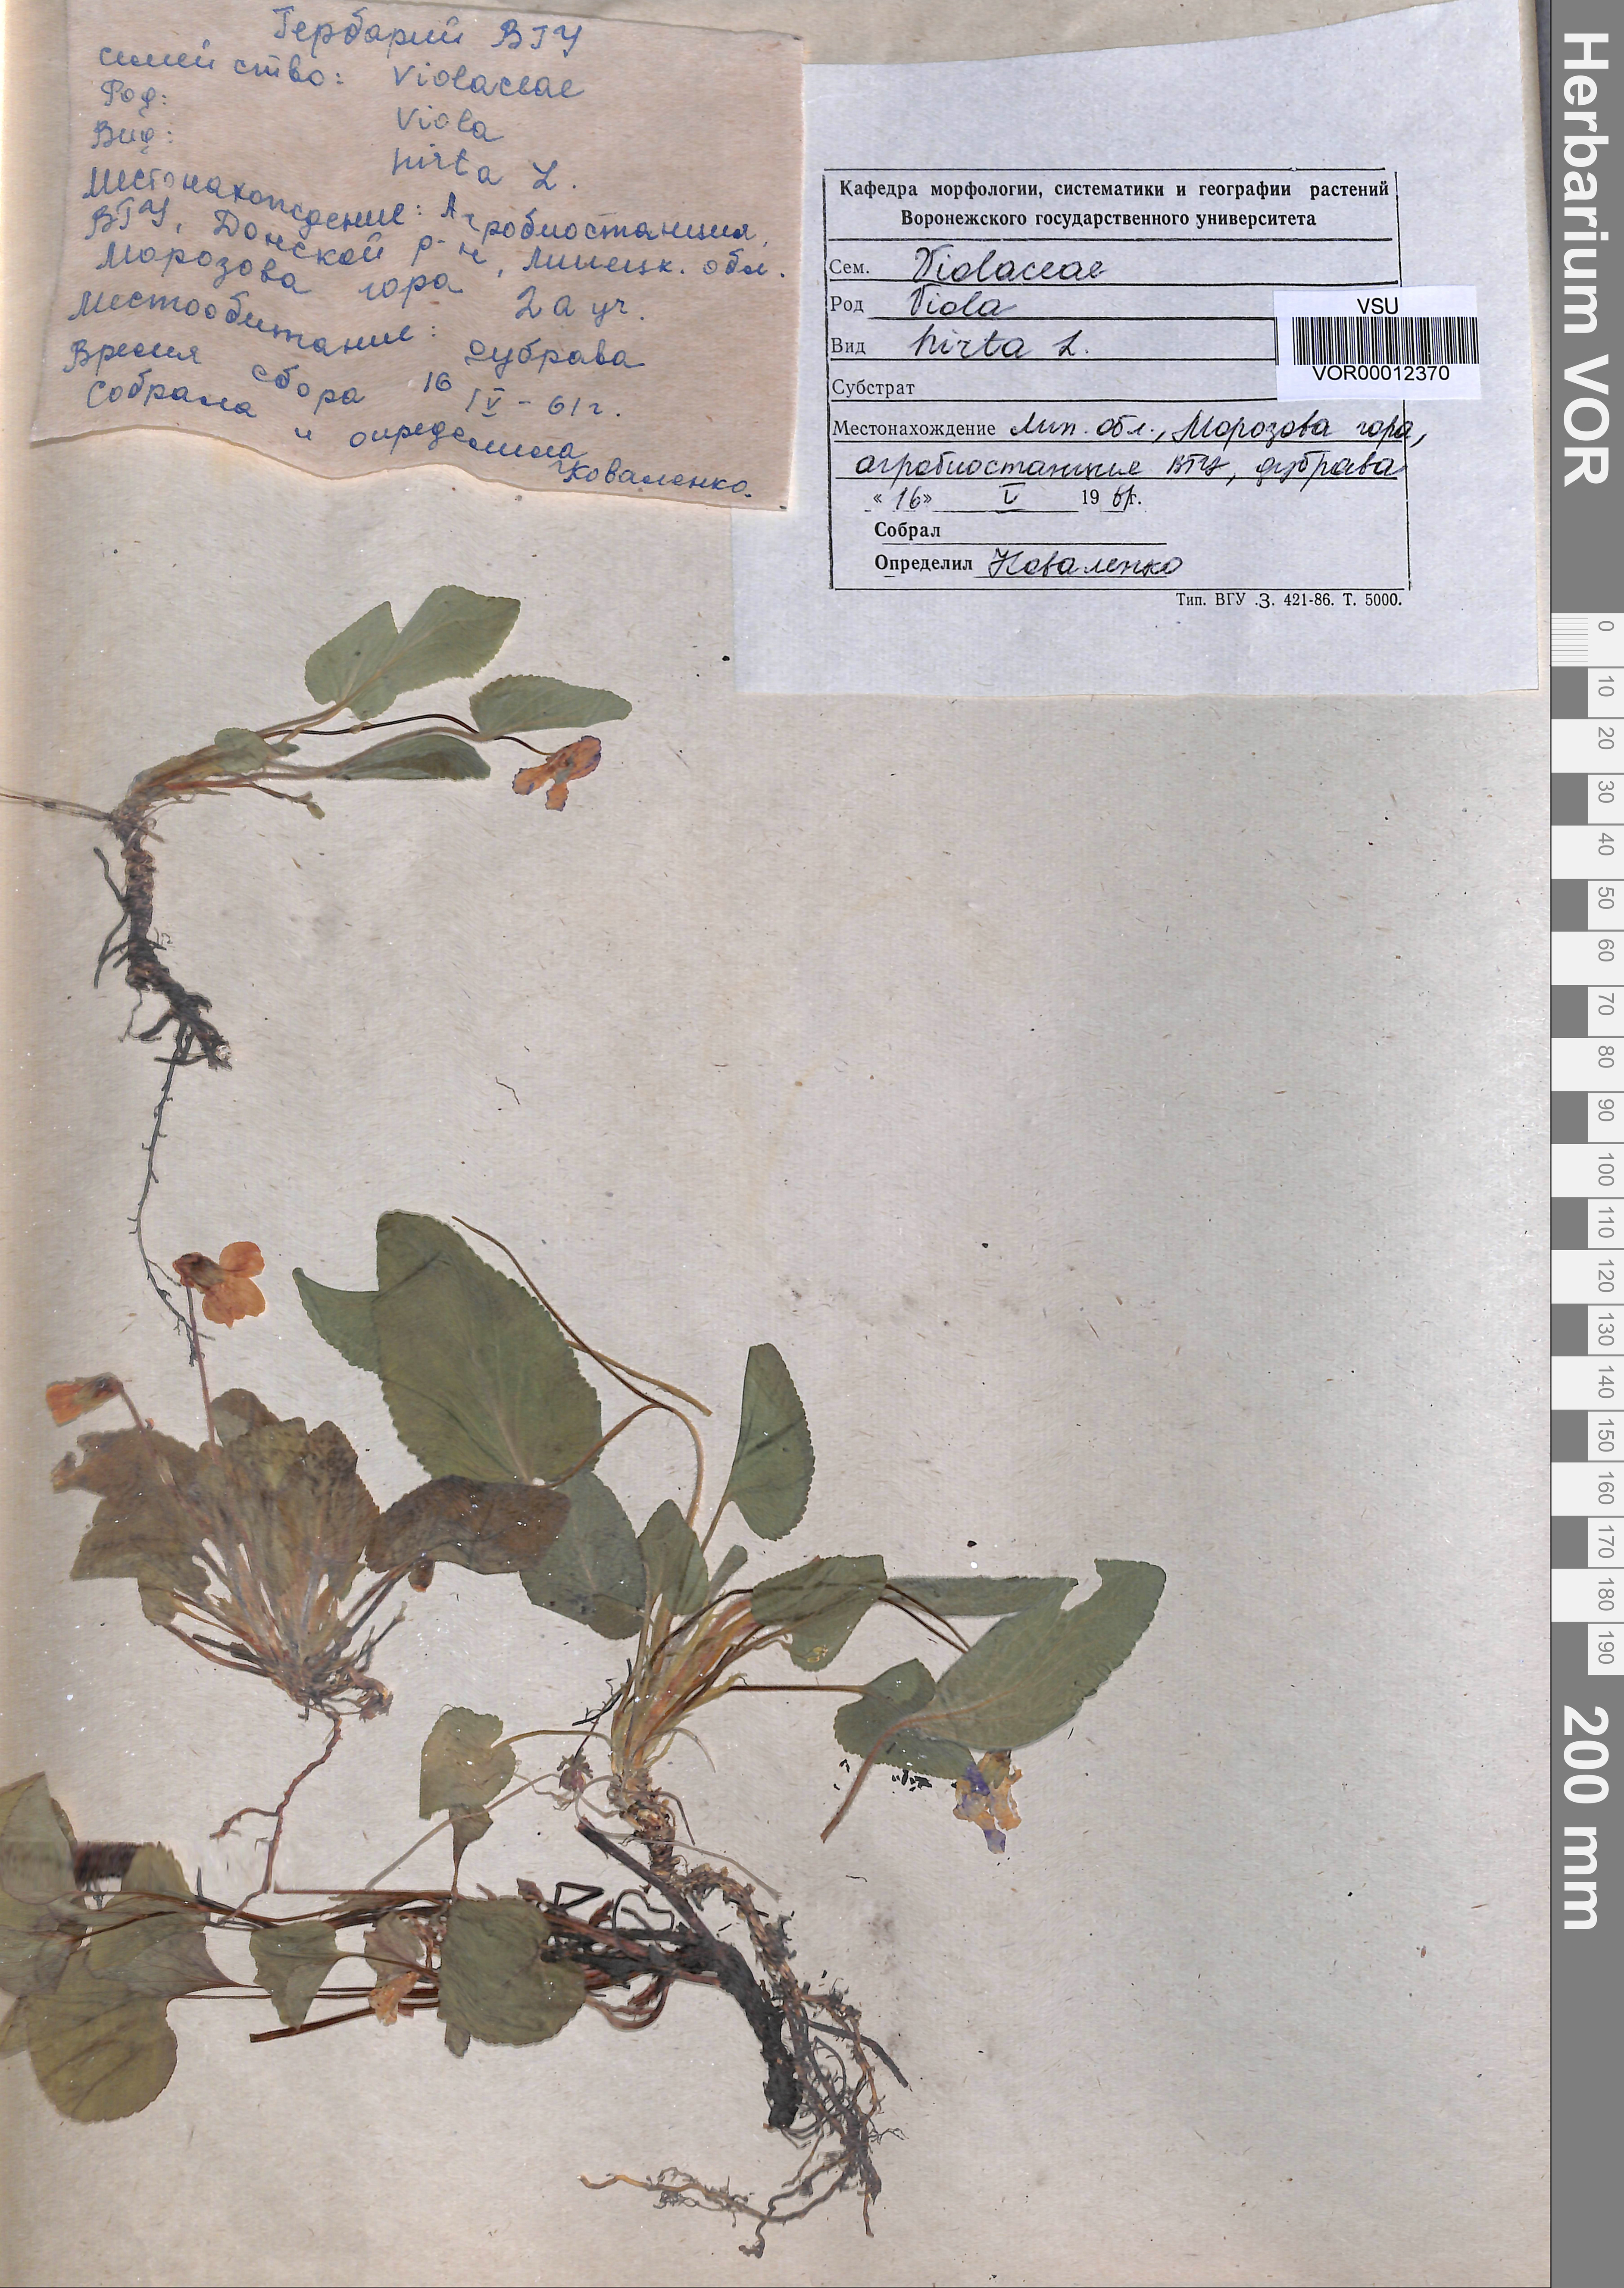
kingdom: Plantae
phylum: Tracheophyta
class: Magnoliopsida
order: Malpighiales
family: Violaceae
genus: Viola
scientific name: Viola hirta
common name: Hairy violet
